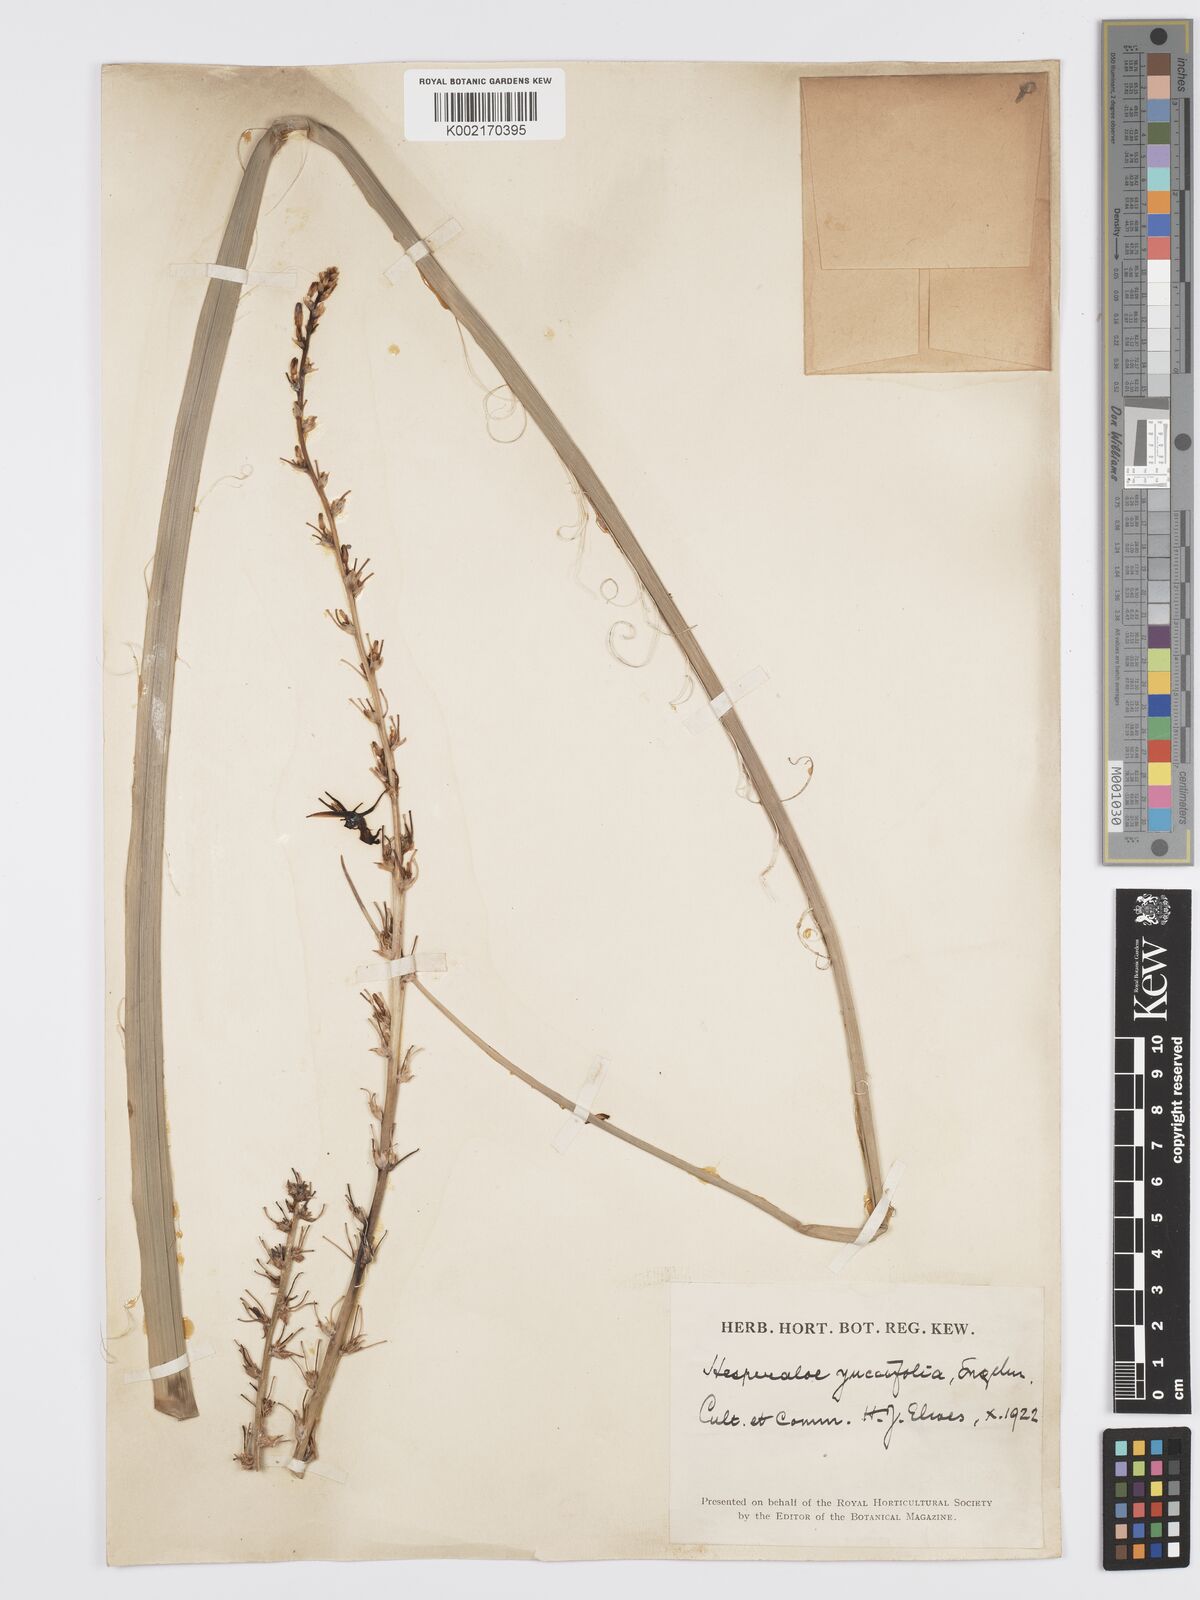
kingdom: Plantae
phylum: Tracheophyta
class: Liliopsida
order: Asparagales
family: Asparagaceae
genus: Hesperaloe
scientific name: Hesperaloe parviflora
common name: Red hesperaloe
